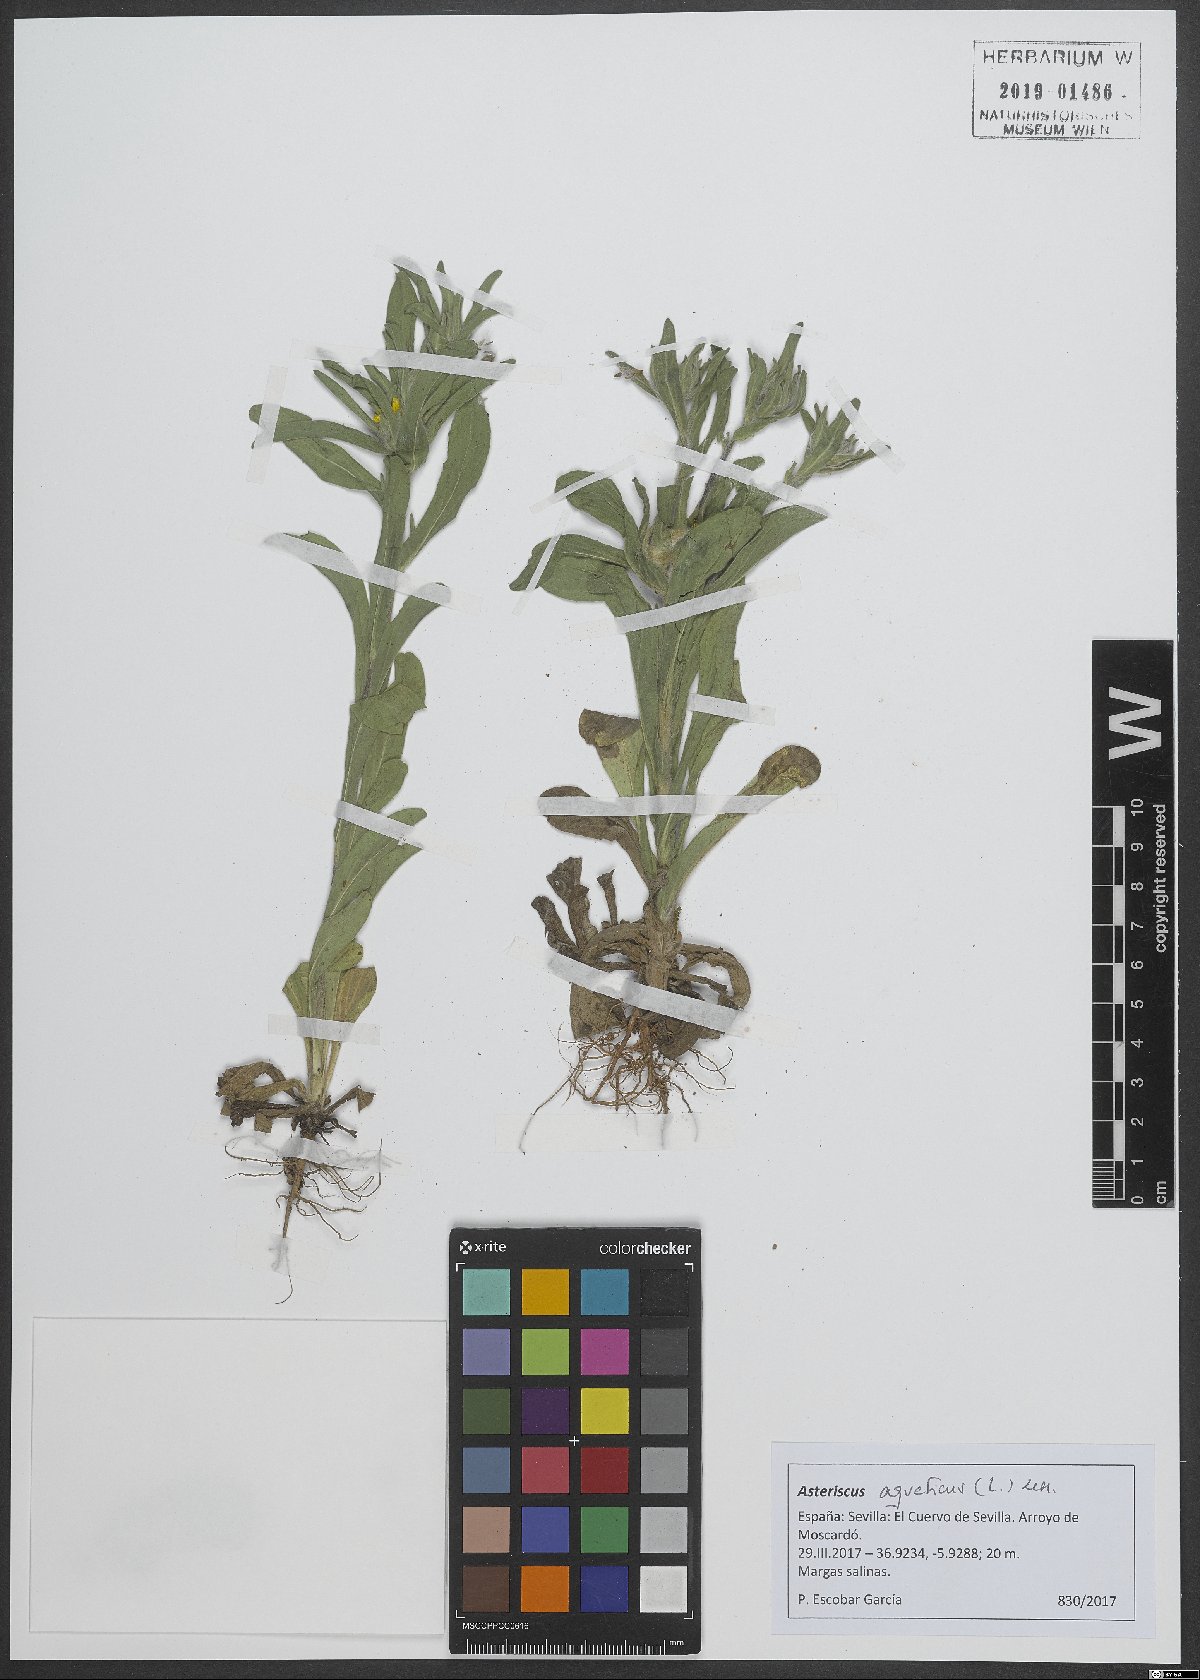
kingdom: Plantae
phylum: Tracheophyta
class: Magnoliopsida
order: Asterales
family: Asteraceae
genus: Asteriscus
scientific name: Asteriscus aquaticus
